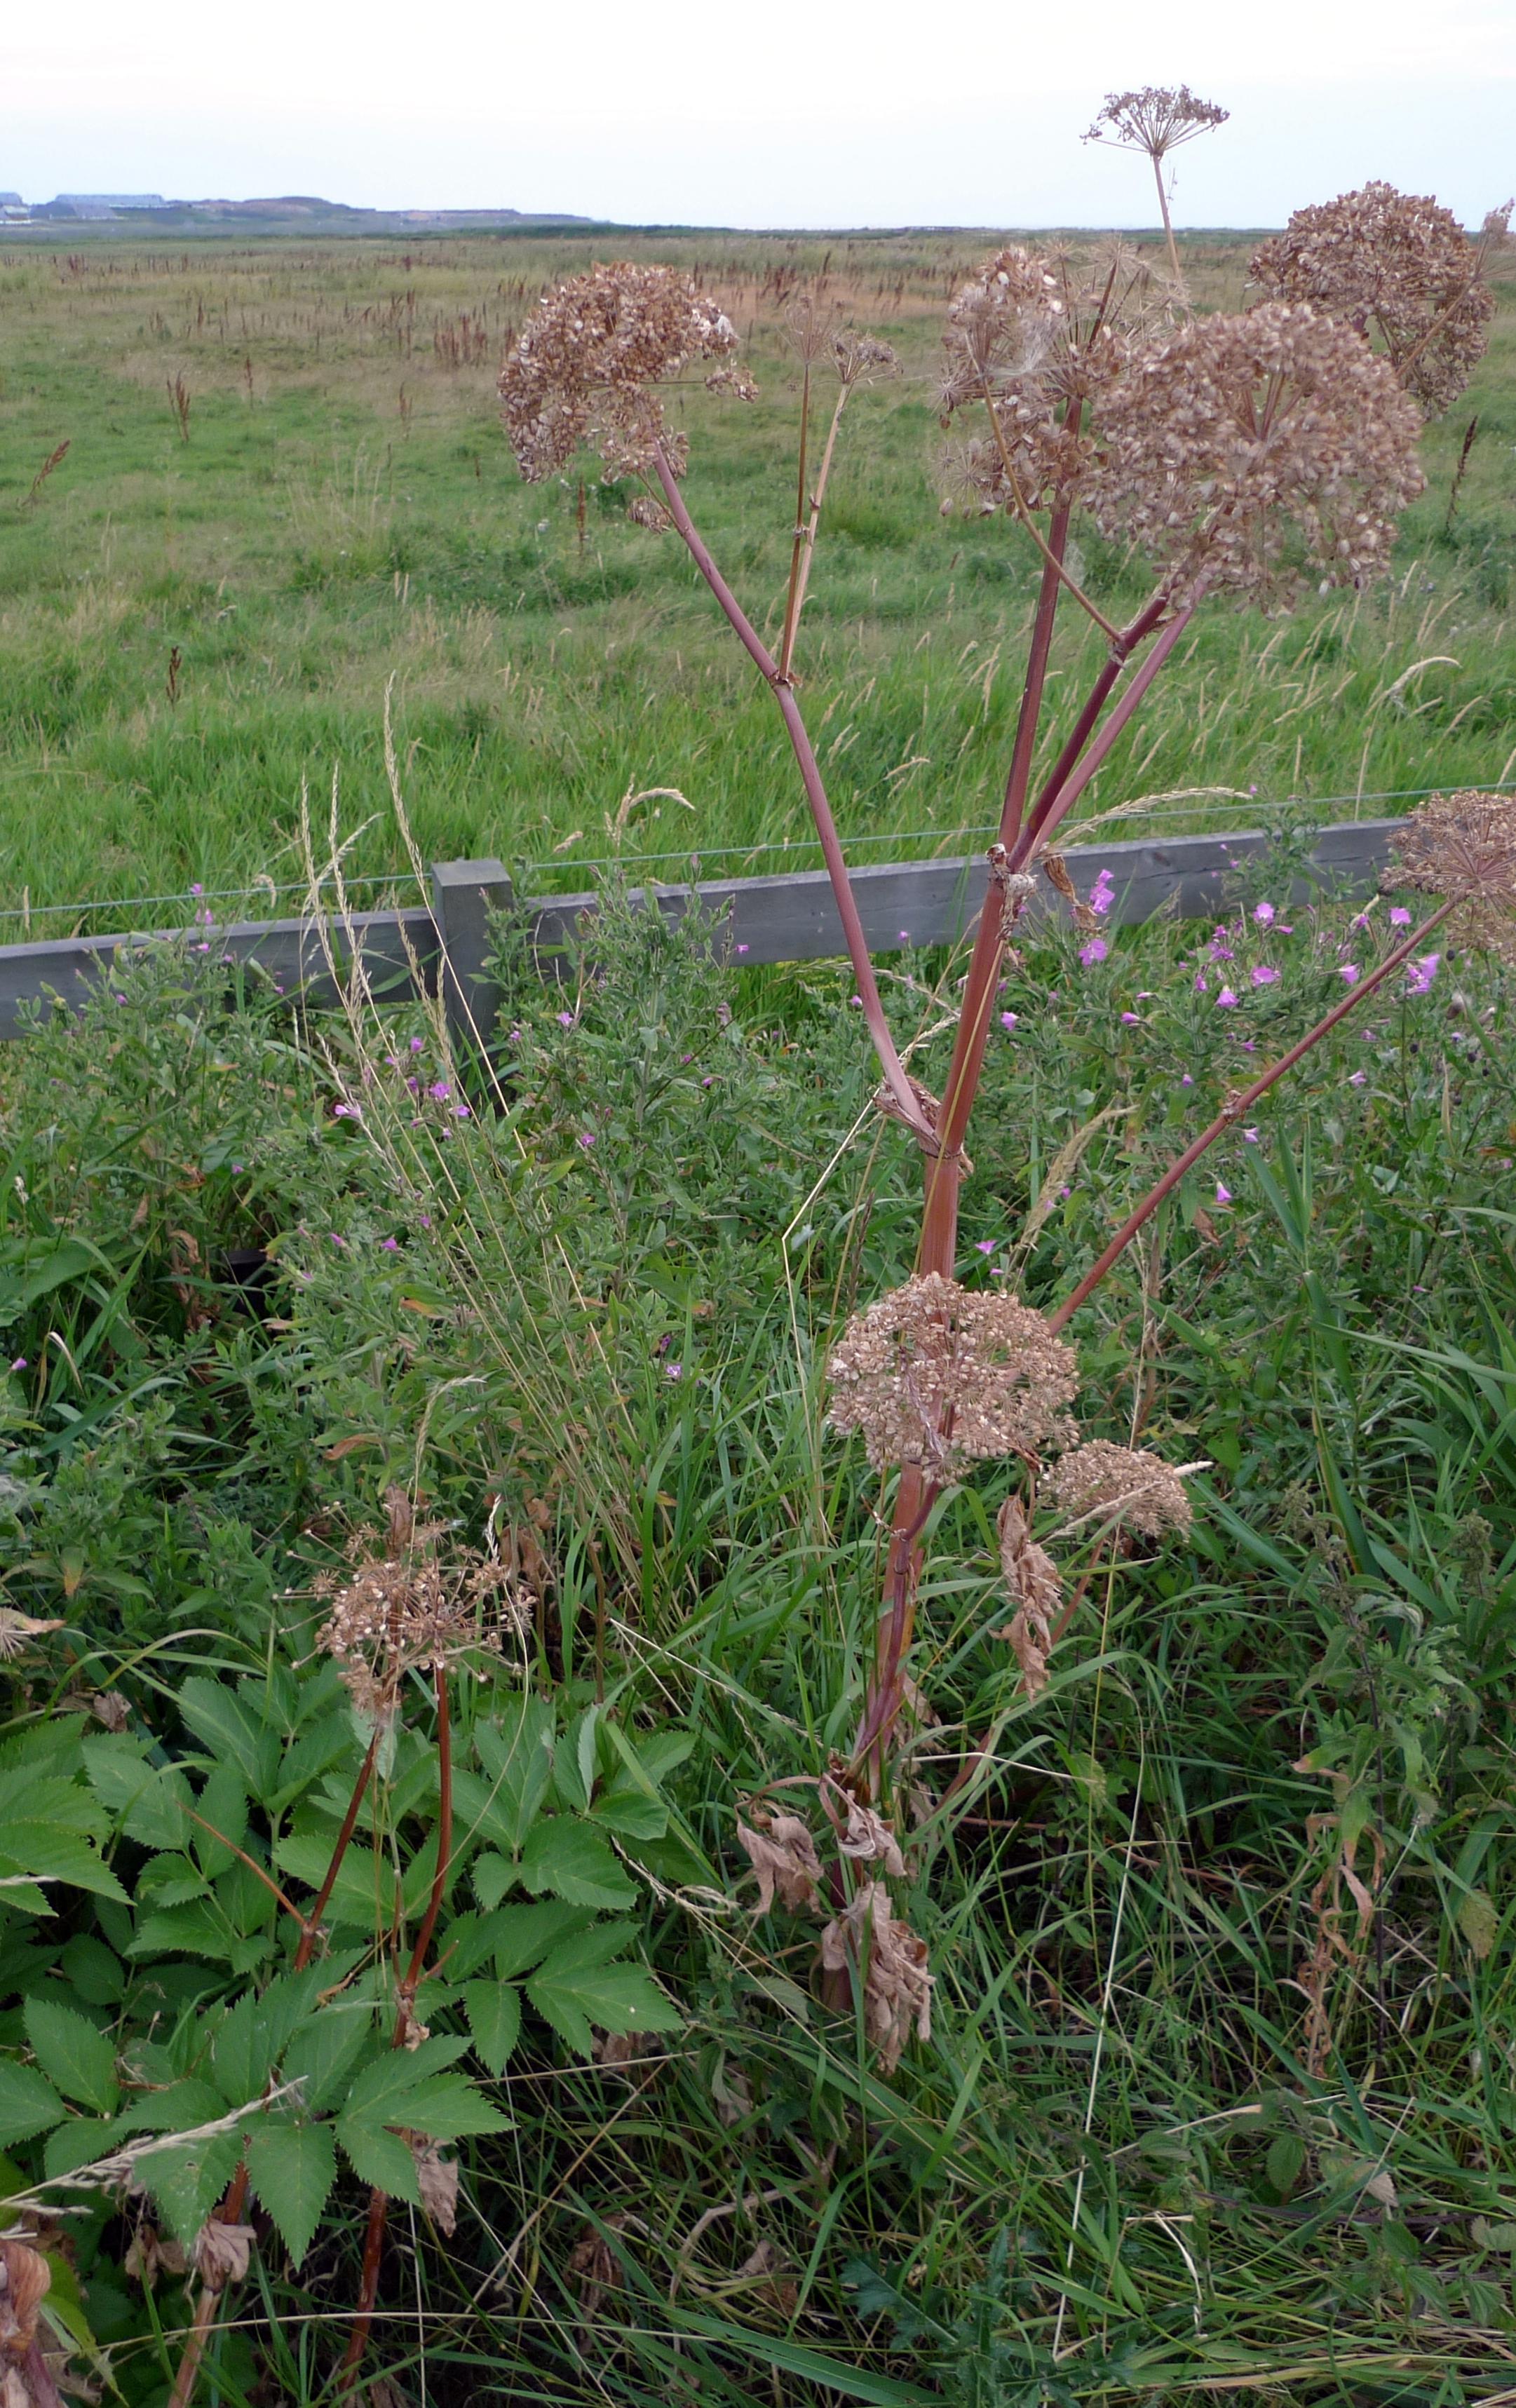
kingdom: Plantae
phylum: Tracheophyta
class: Magnoliopsida
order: Apiales
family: Apiaceae
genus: Angelica
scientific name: Angelica archangelica
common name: Garden angelica
